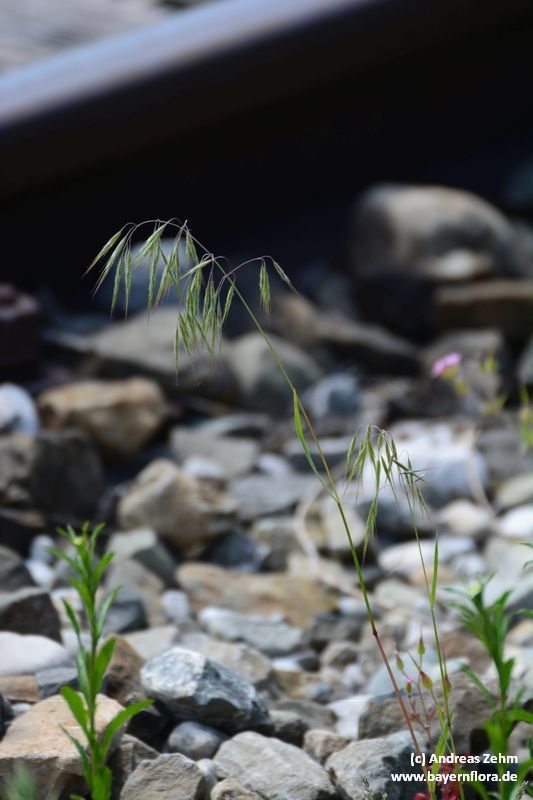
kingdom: Plantae
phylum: Tracheophyta
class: Liliopsida
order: Poales
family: Poaceae
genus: Bromus
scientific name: Bromus tectorum
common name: Cheatgrass
